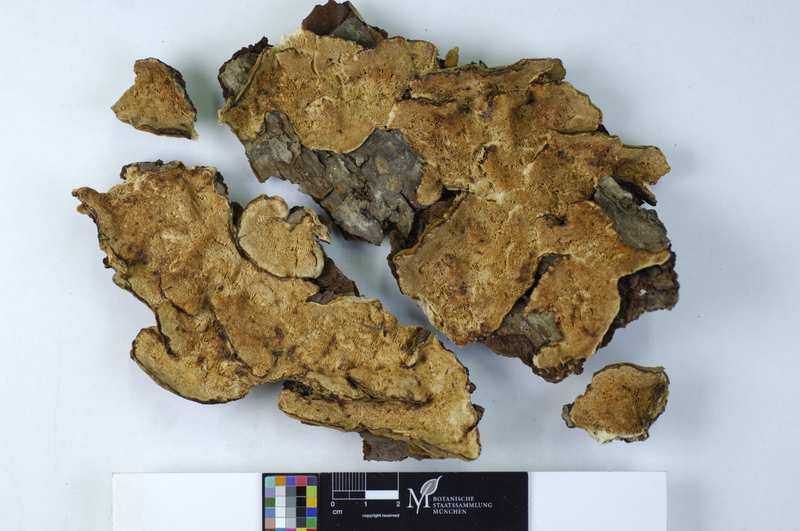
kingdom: Plantae
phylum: Tracheophyta
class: Magnoliopsida
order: Rosales
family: Rosaceae
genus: Malus
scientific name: Malus
